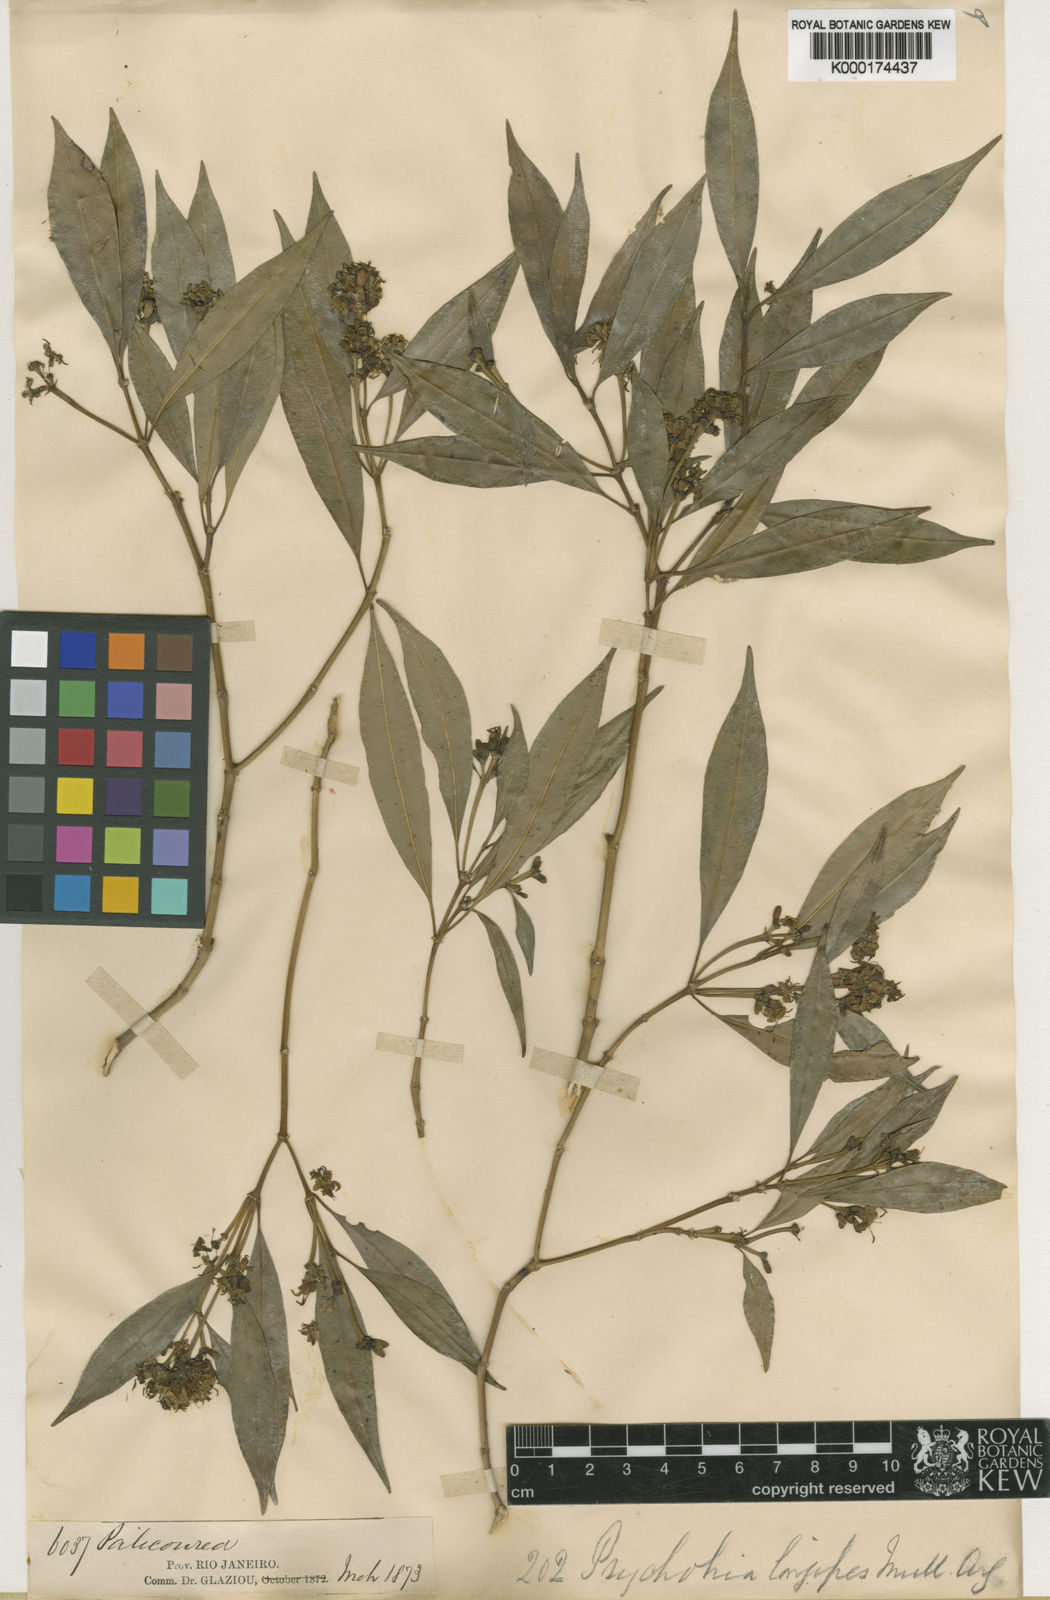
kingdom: Plantae
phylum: Tracheophyta
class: Magnoliopsida
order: Gentianales
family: Rubiaceae
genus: Palicourea
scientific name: Palicourea sessilis
